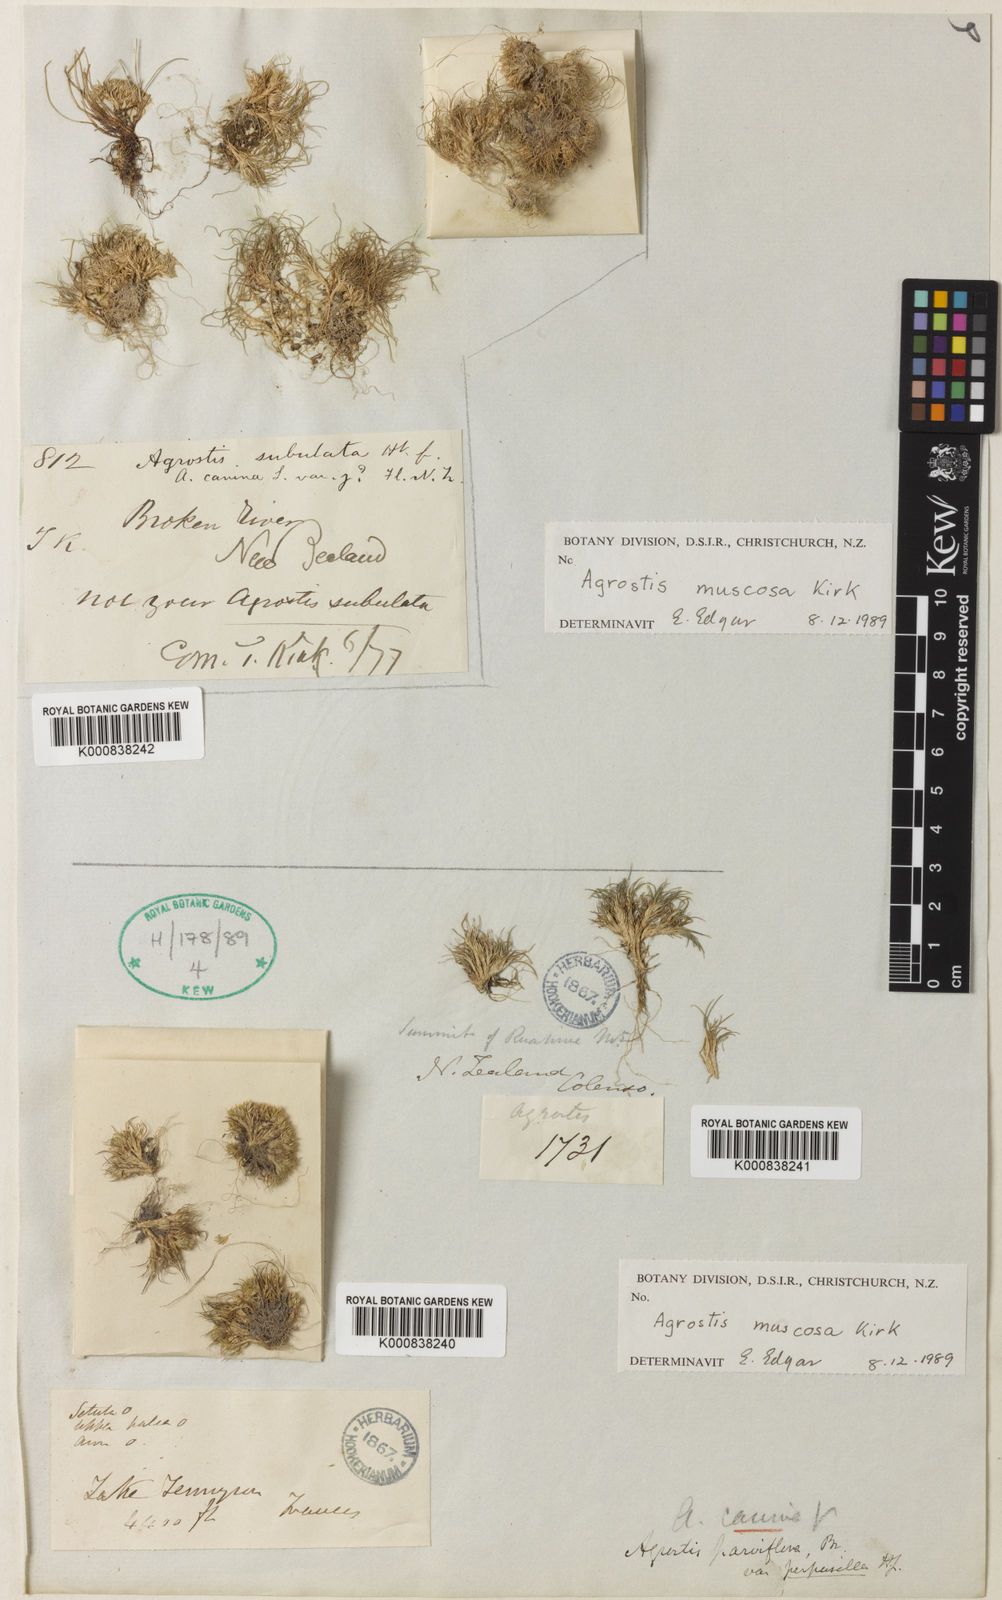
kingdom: Plantae
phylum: Tracheophyta
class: Liliopsida
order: Poales
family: Poaceae
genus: Agrostis
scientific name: Agrostis muscosa
